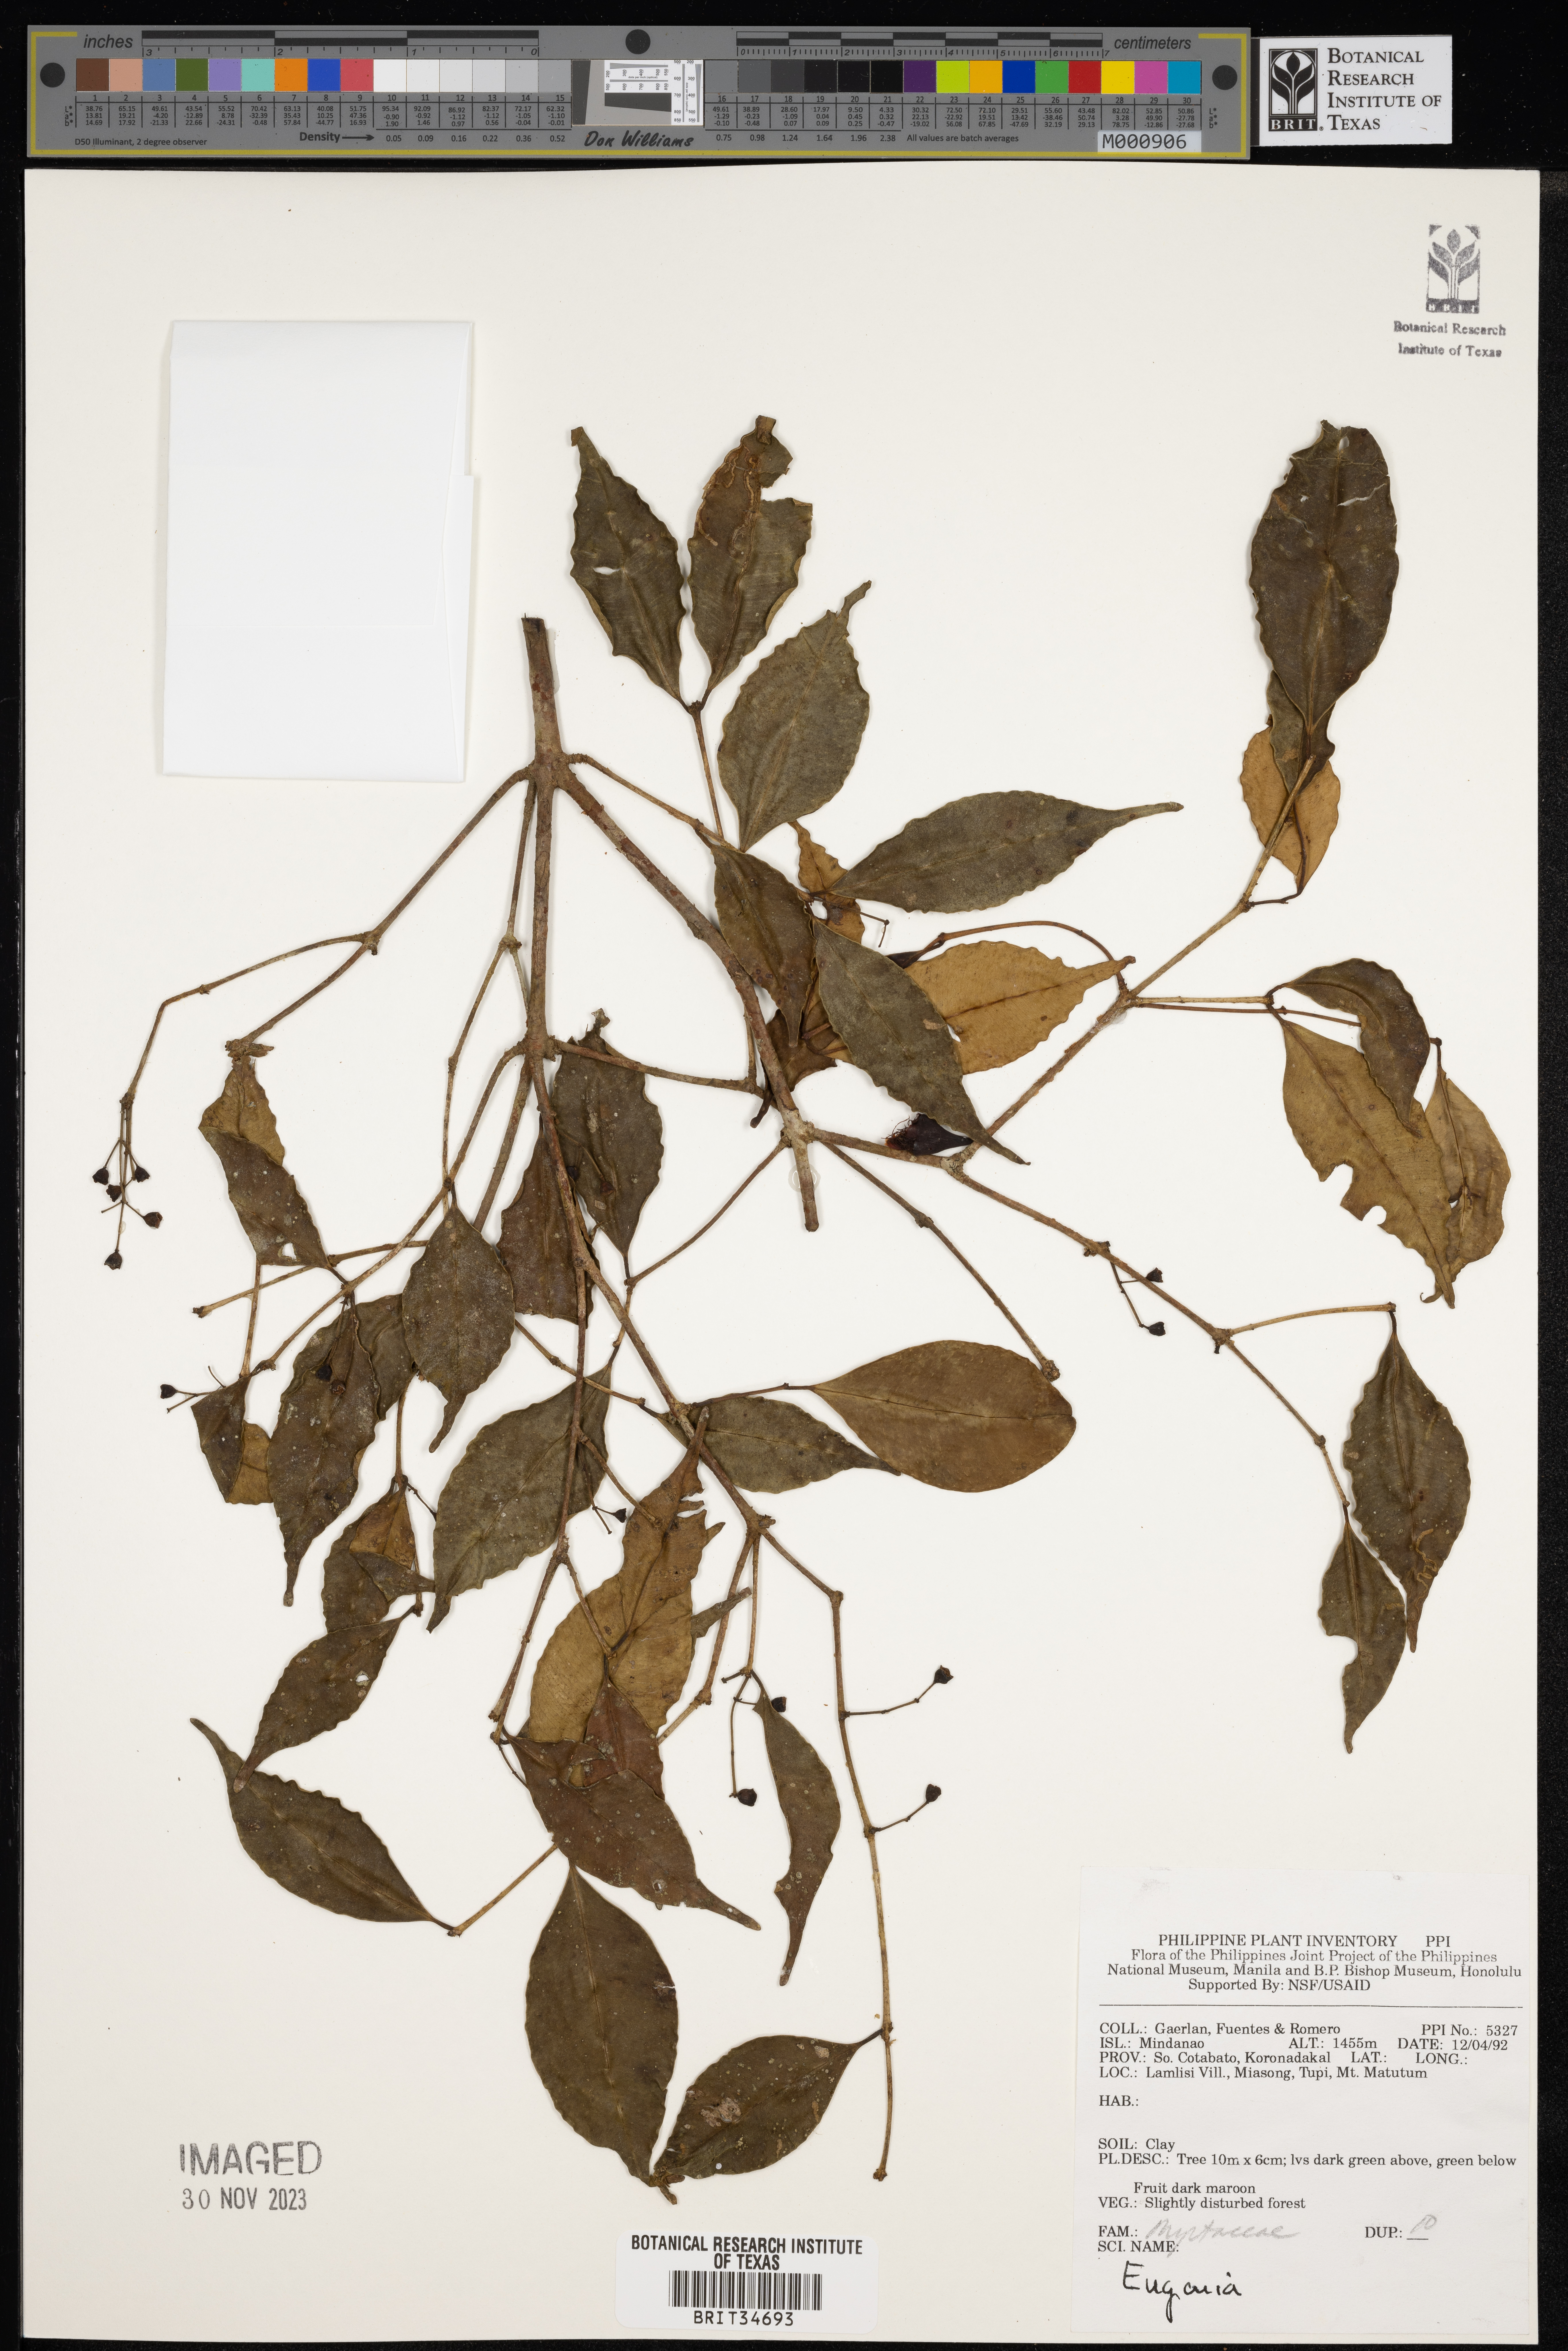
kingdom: Plantae
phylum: Tracheophyta
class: Magnoliopsida
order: Myrtales
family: Myrtaceae
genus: Eugenia
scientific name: Eugenia
